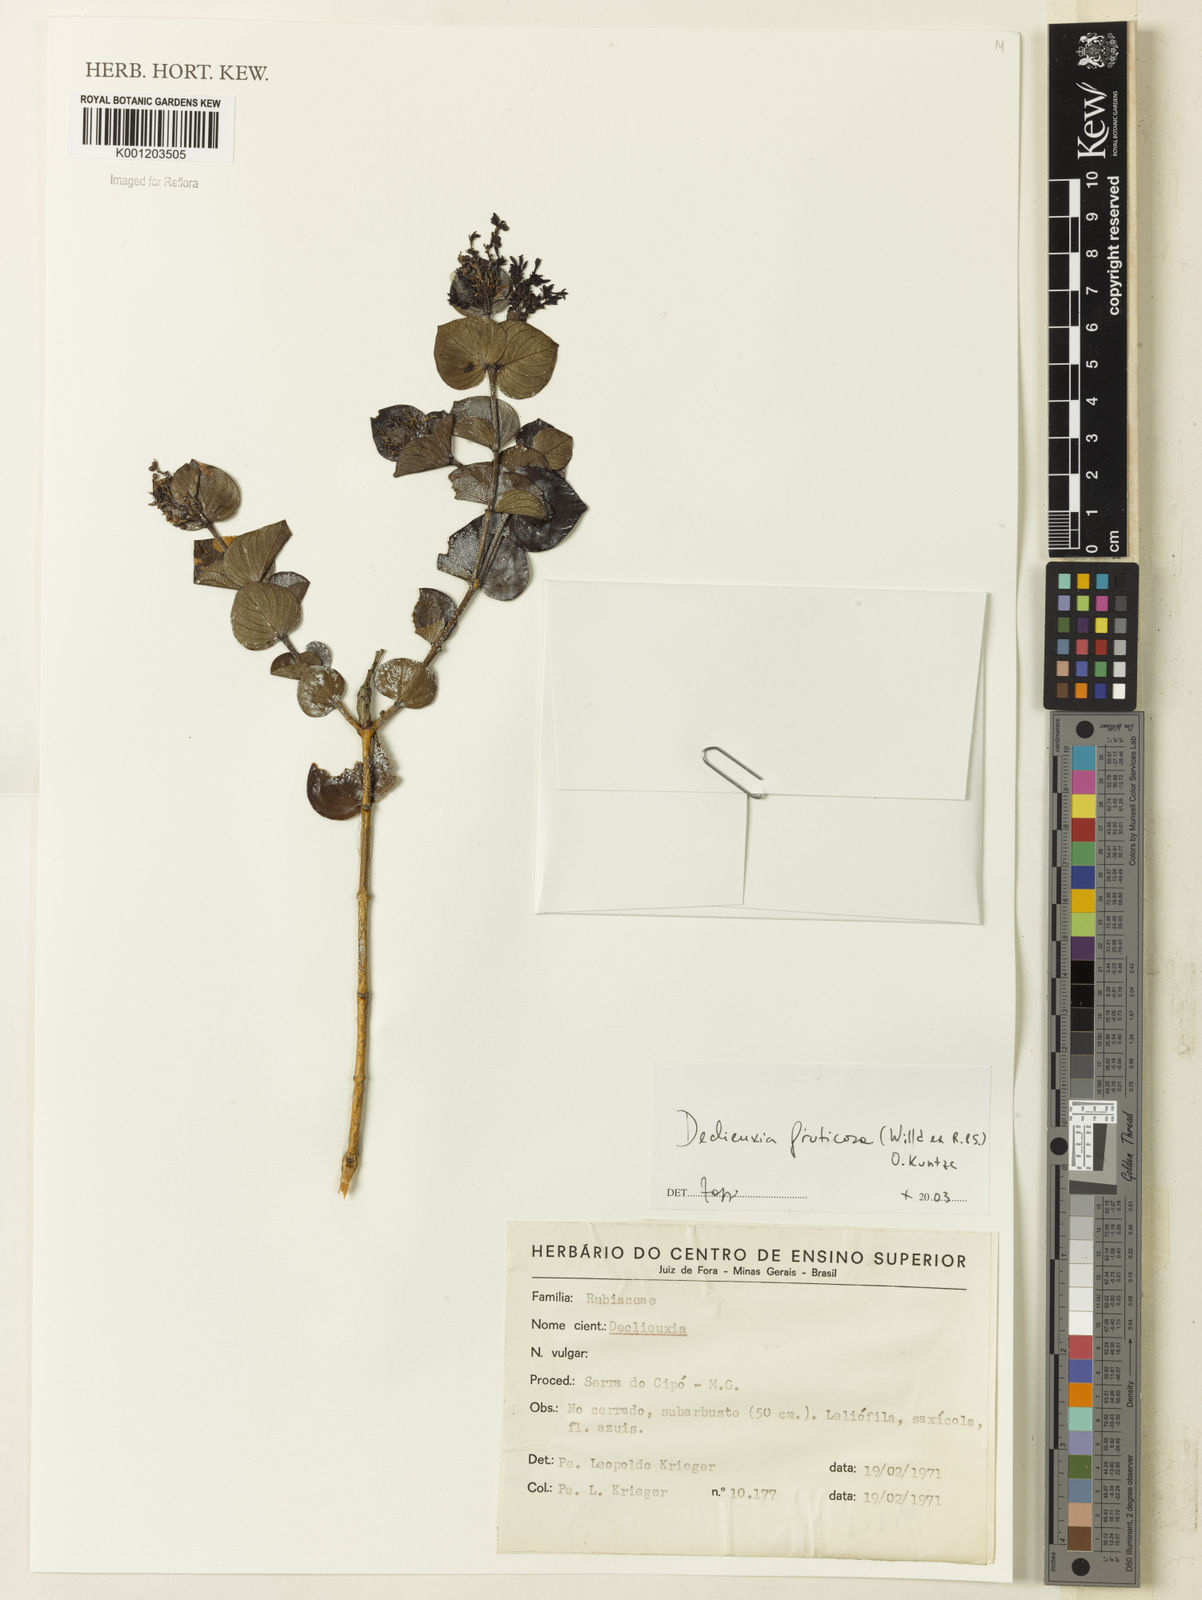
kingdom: Plantae
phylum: Tracheophyta
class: Magnoliopsida
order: Gentianales
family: Rubiaceae
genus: Declieuxia
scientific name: Declieuxia fruticosa
